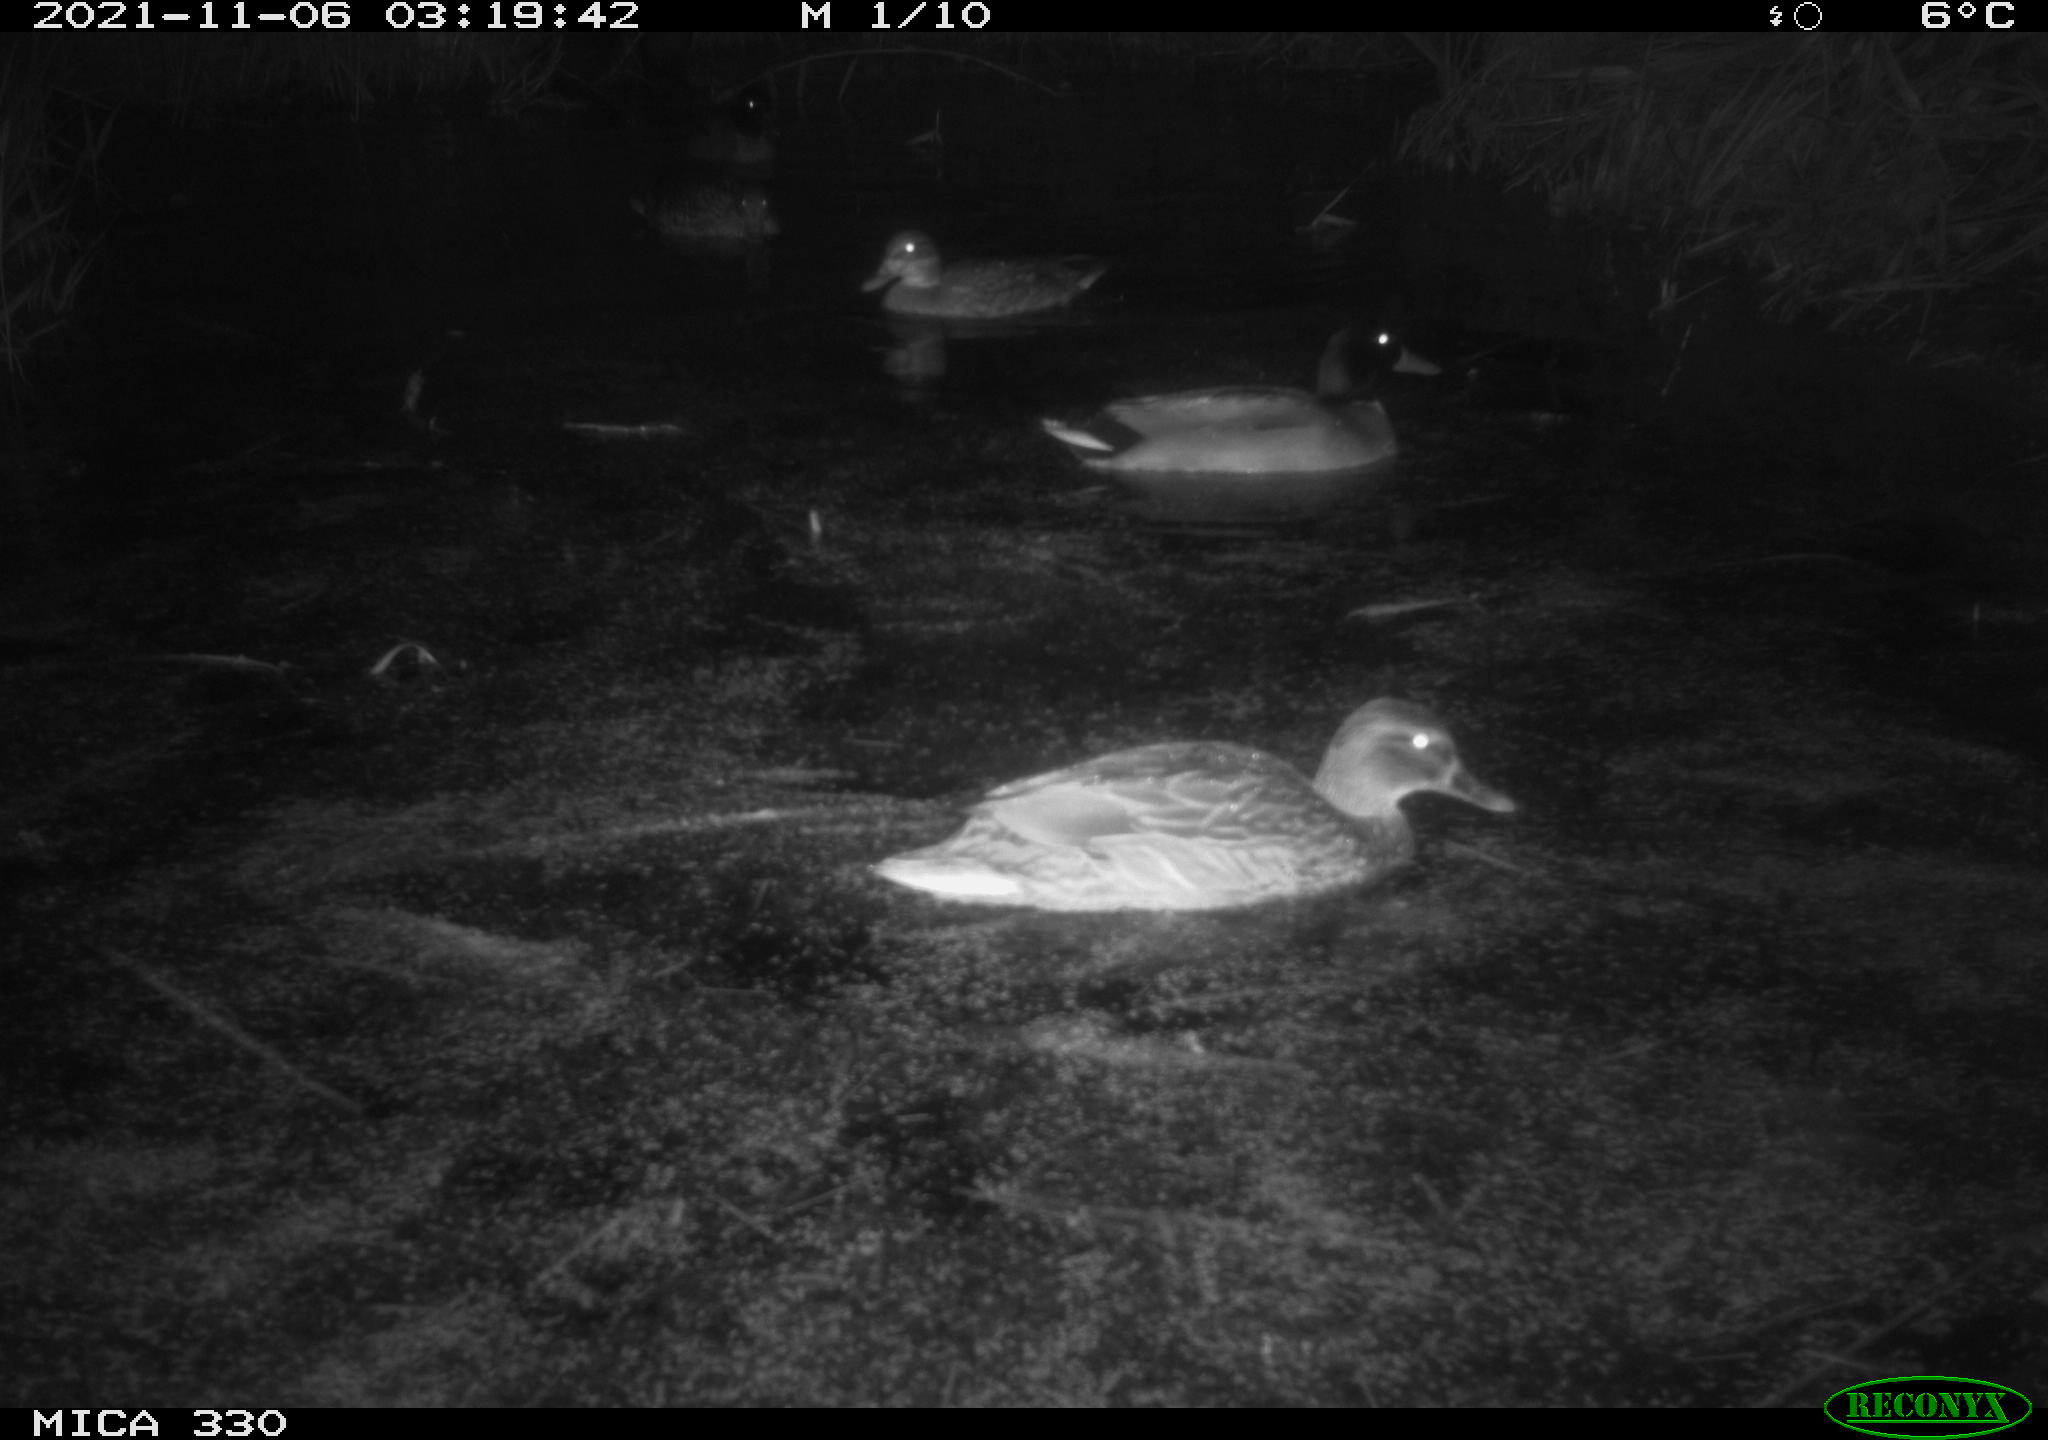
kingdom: Animalia
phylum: Chordata
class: Aves
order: Anseriformes
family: Anatidae
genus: Anas
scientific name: Anas platyrhynchos
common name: Mallard
